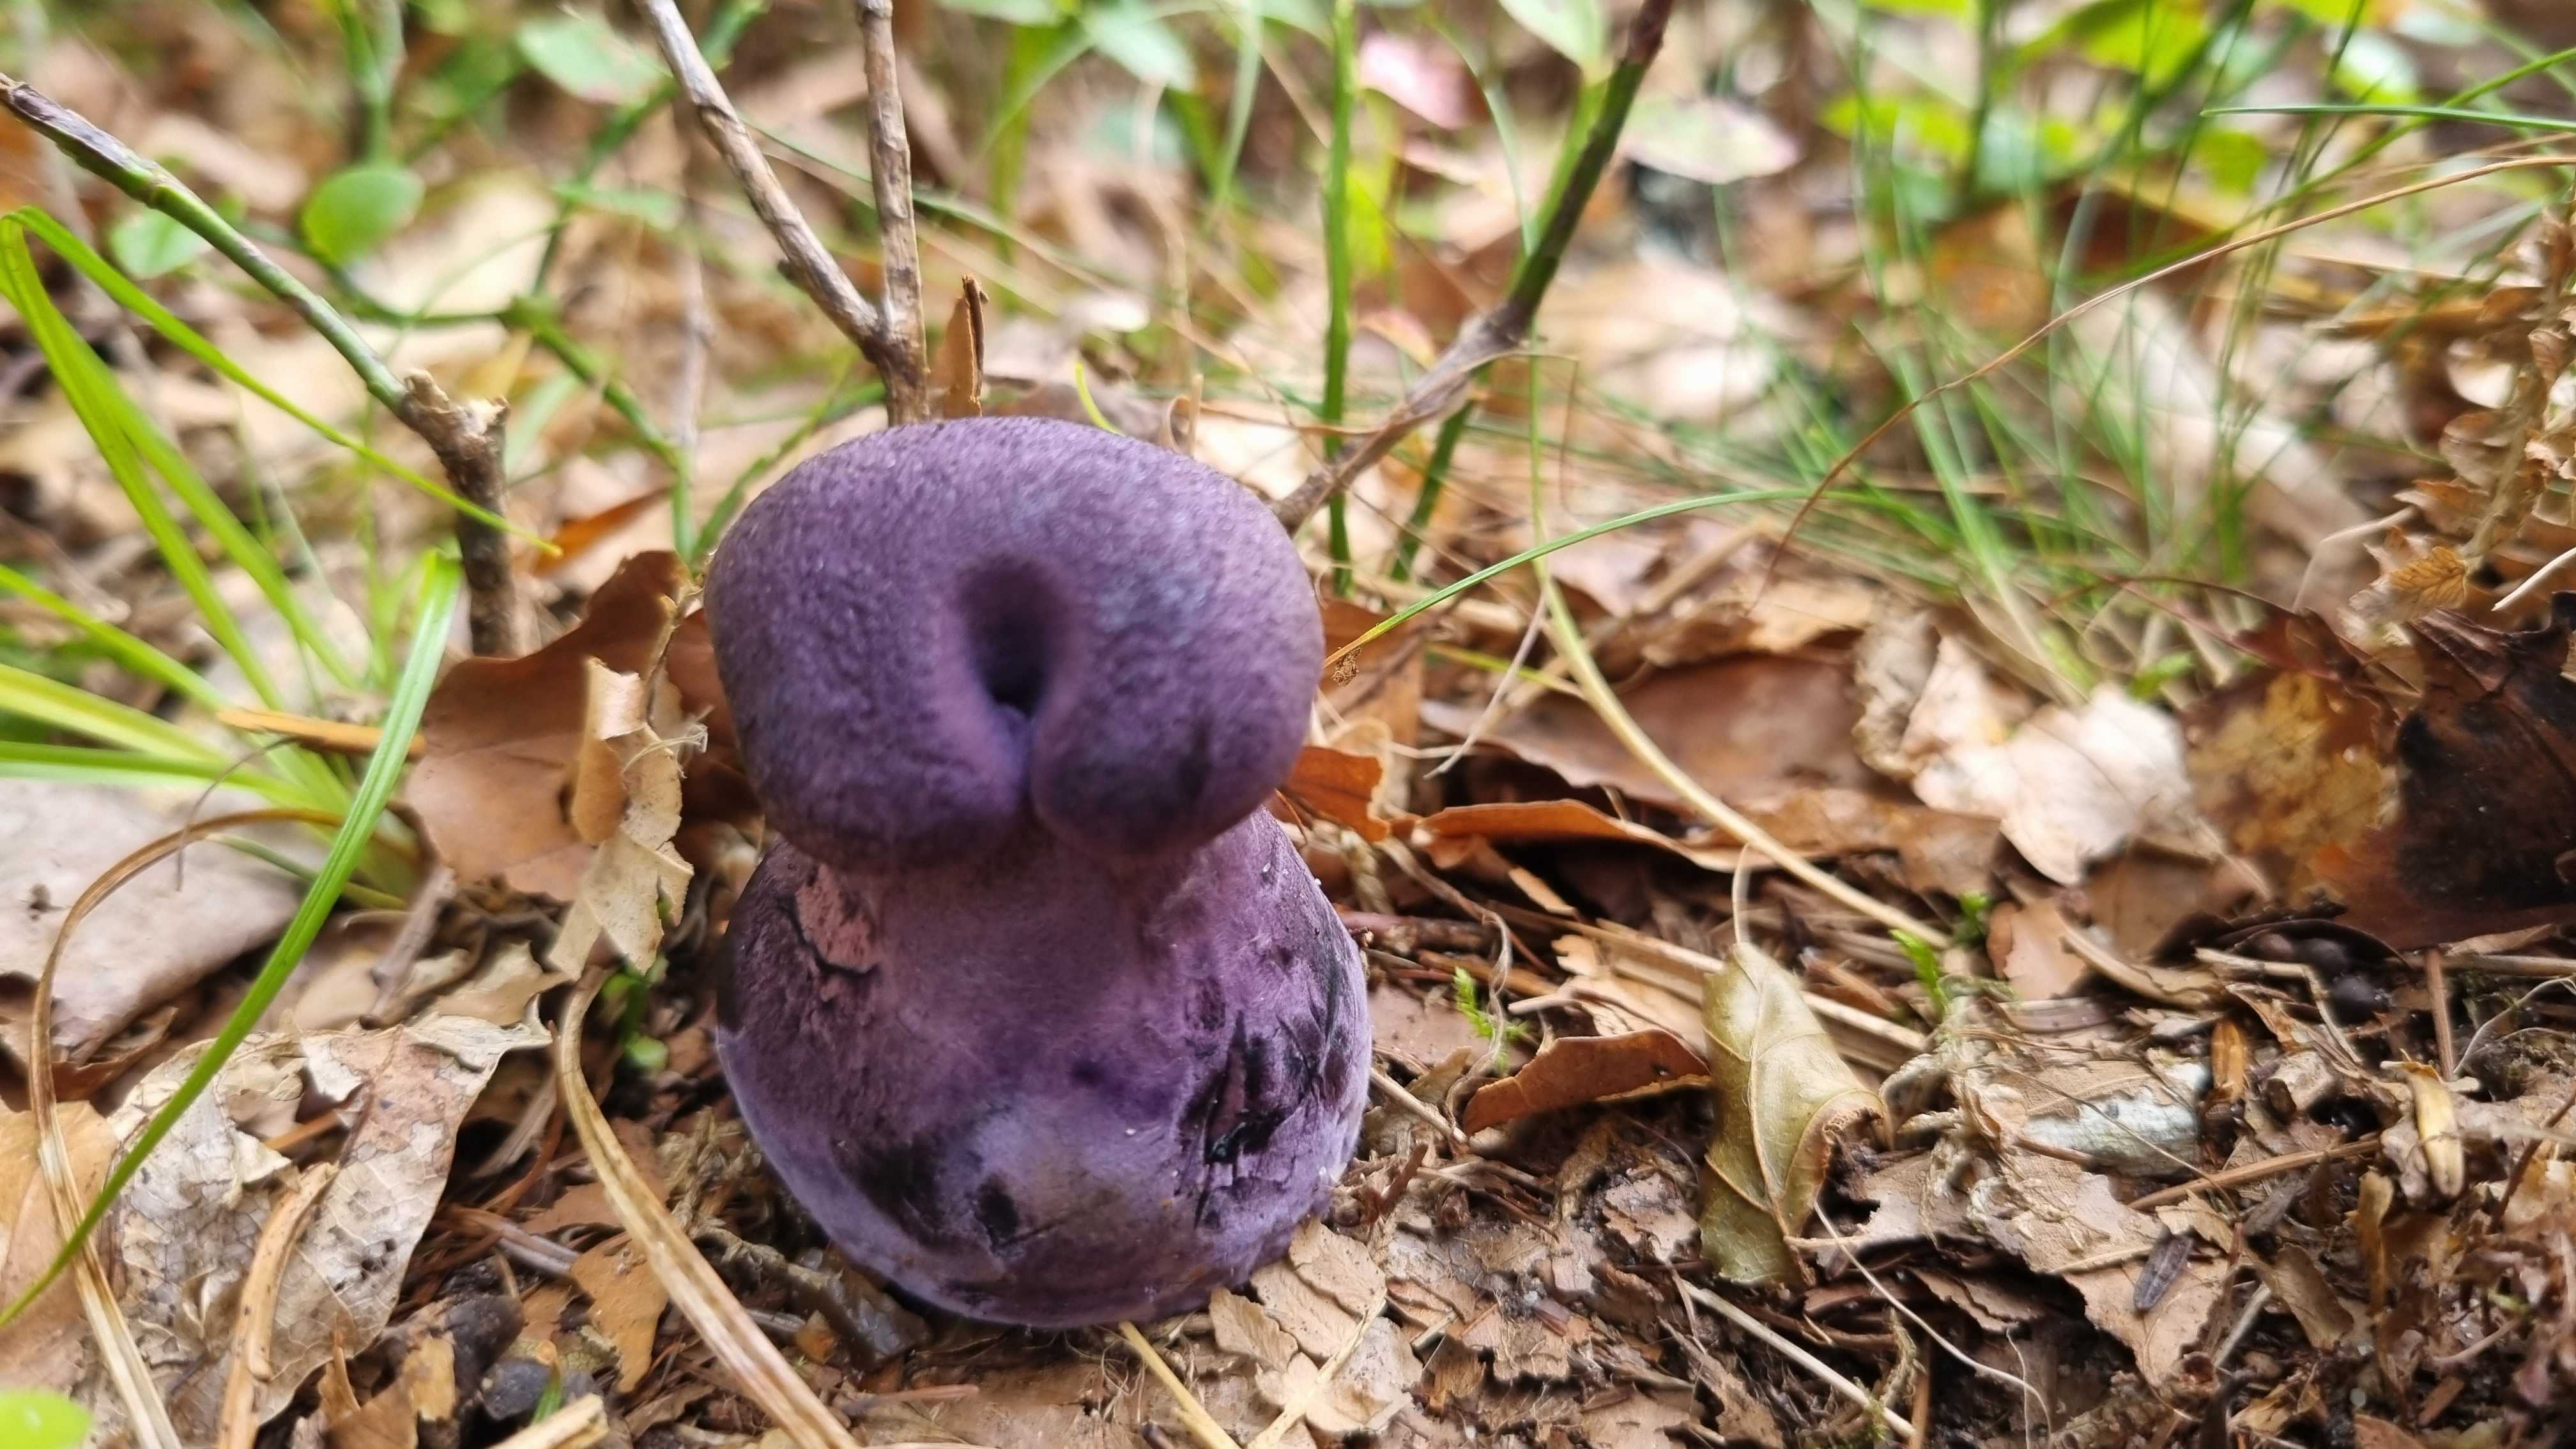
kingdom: Fungi
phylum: Basidiomycota
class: Agaricomycetes
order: Agaricales
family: Cortinariaceae
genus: Cortinarius
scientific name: Cortinarius violaceus
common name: mørkviolet slørhat
